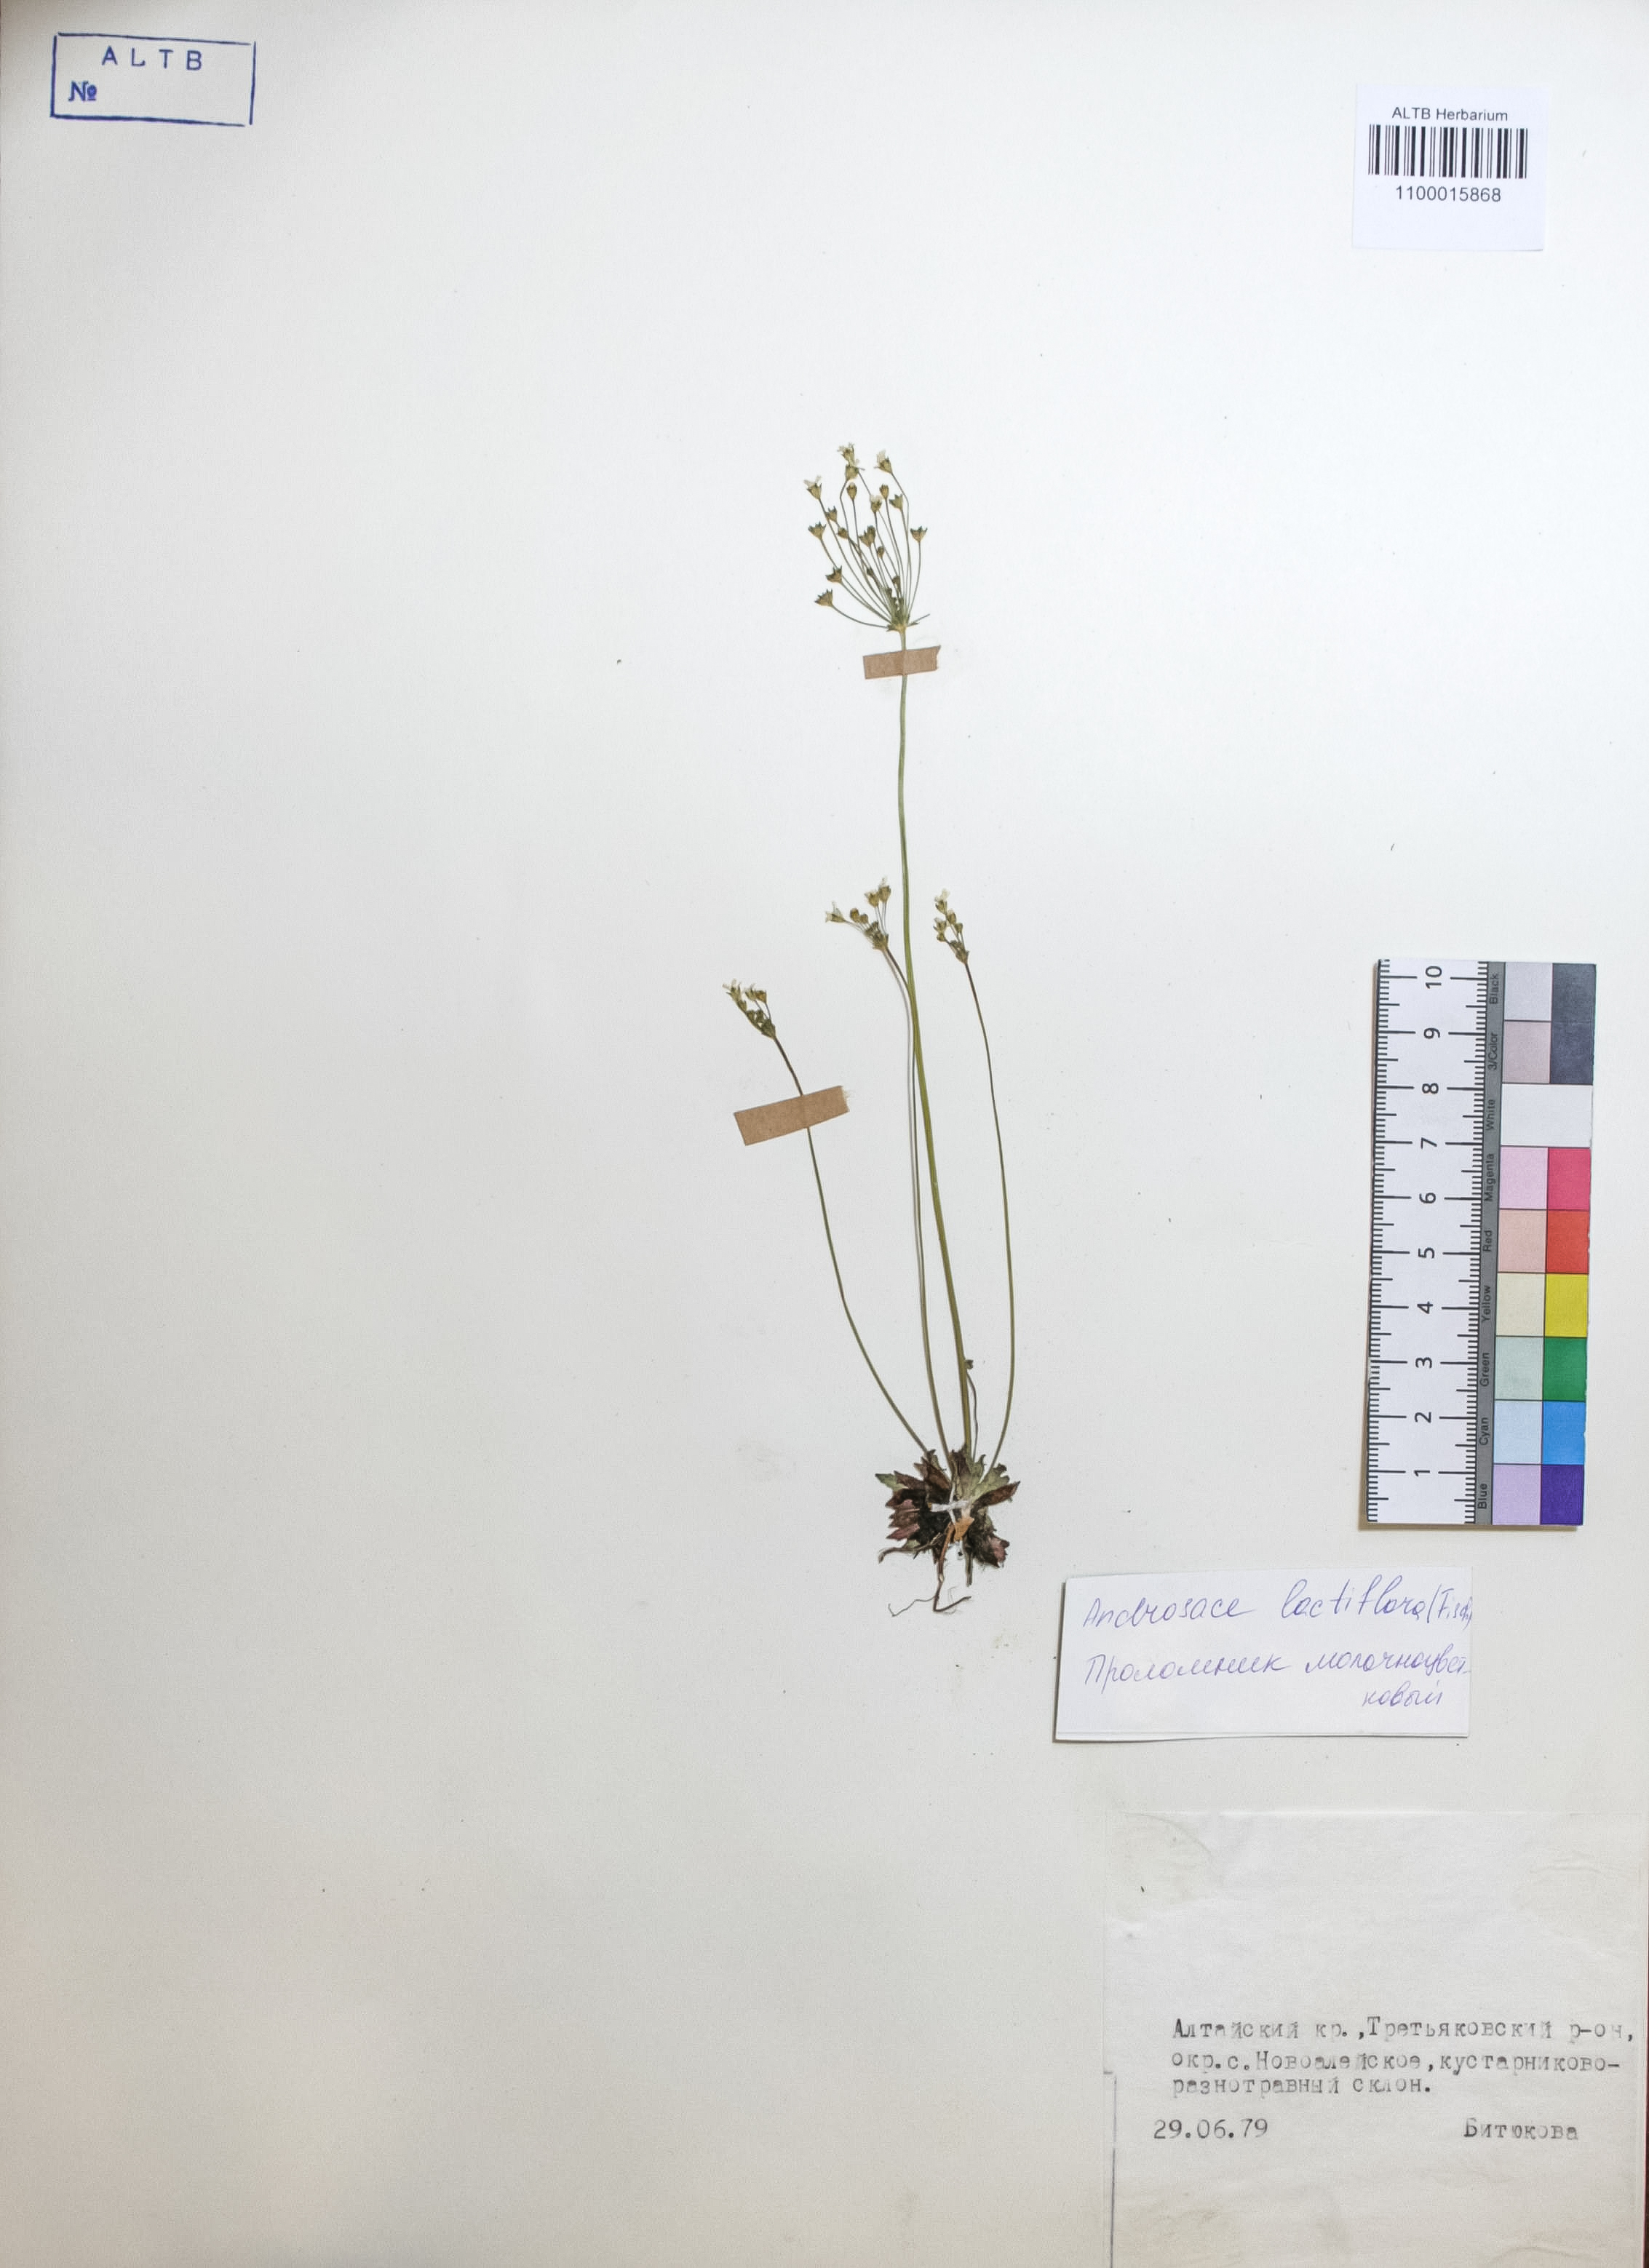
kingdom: Plantae
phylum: Tracheophyta
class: Magnoliopsida
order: Ericales
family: Primulaceae
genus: Androsace
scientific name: Androsace lactiflora
